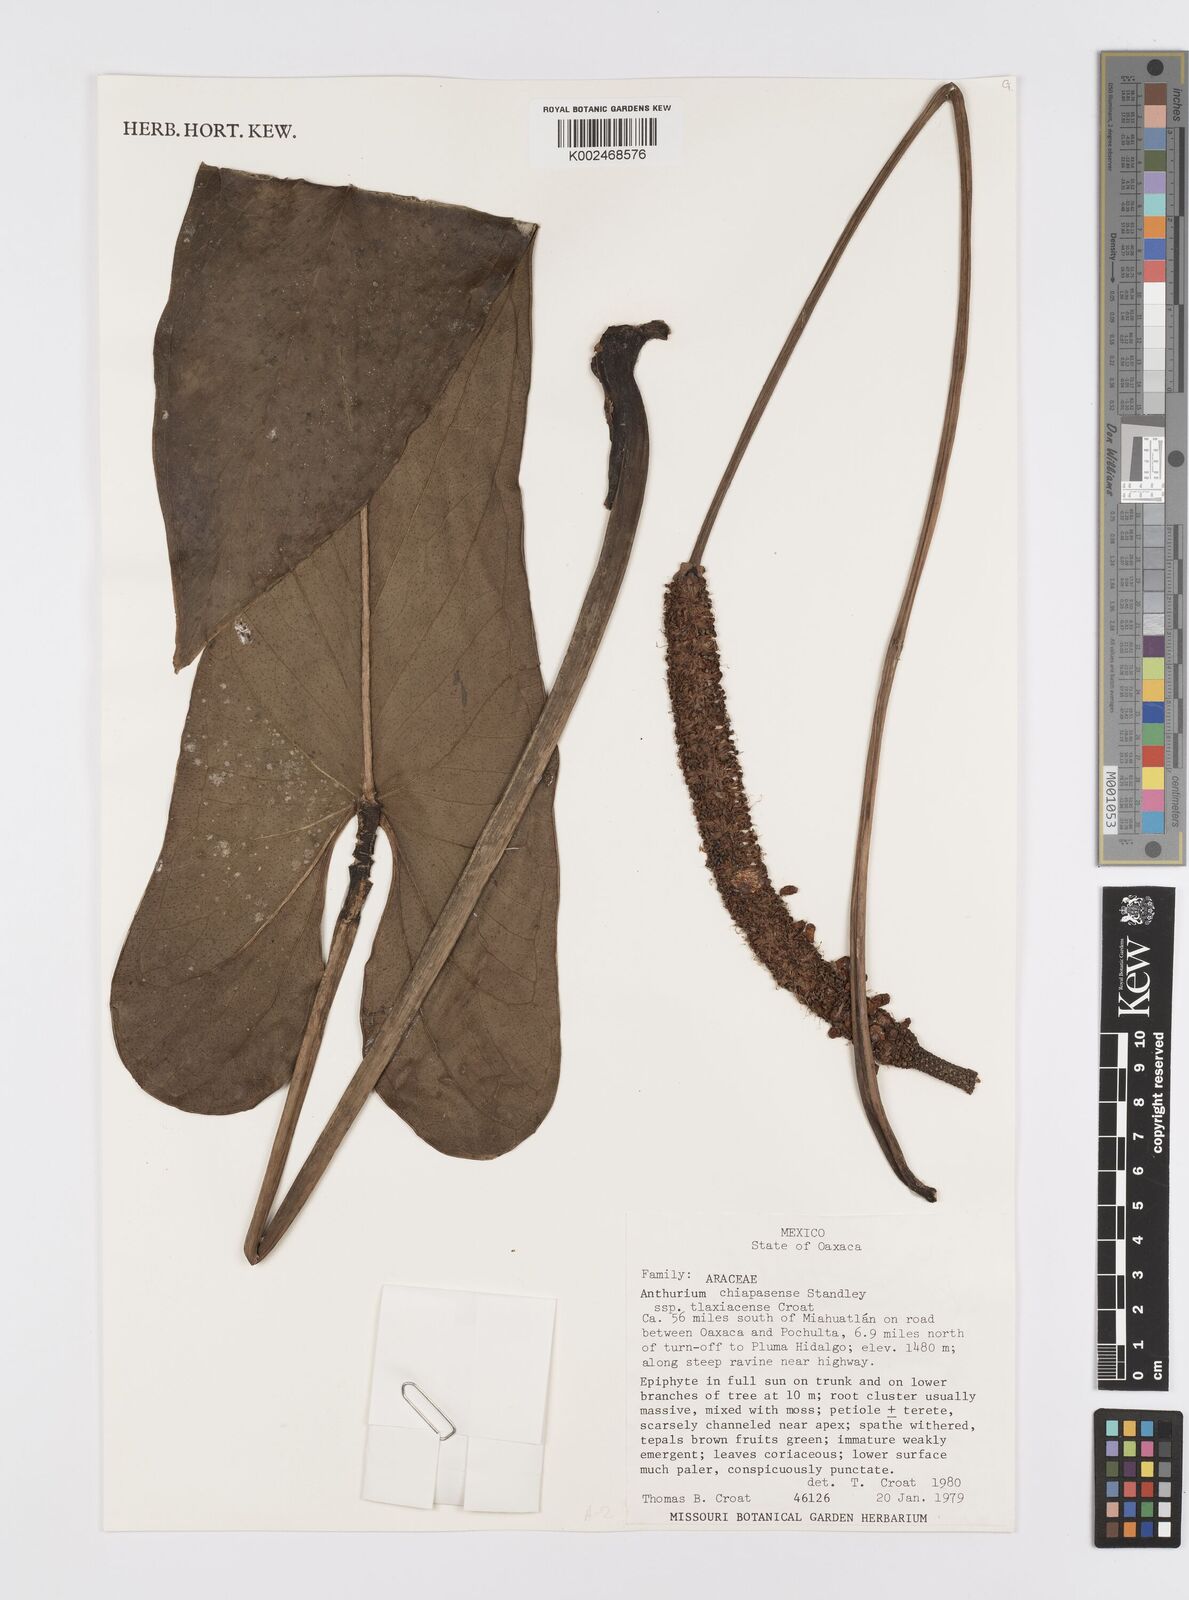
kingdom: Plantae
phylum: Tracheophyta
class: Liliopsida
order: Alismatales
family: Araceae
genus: Anthurium
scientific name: Anthurium chiapasense
